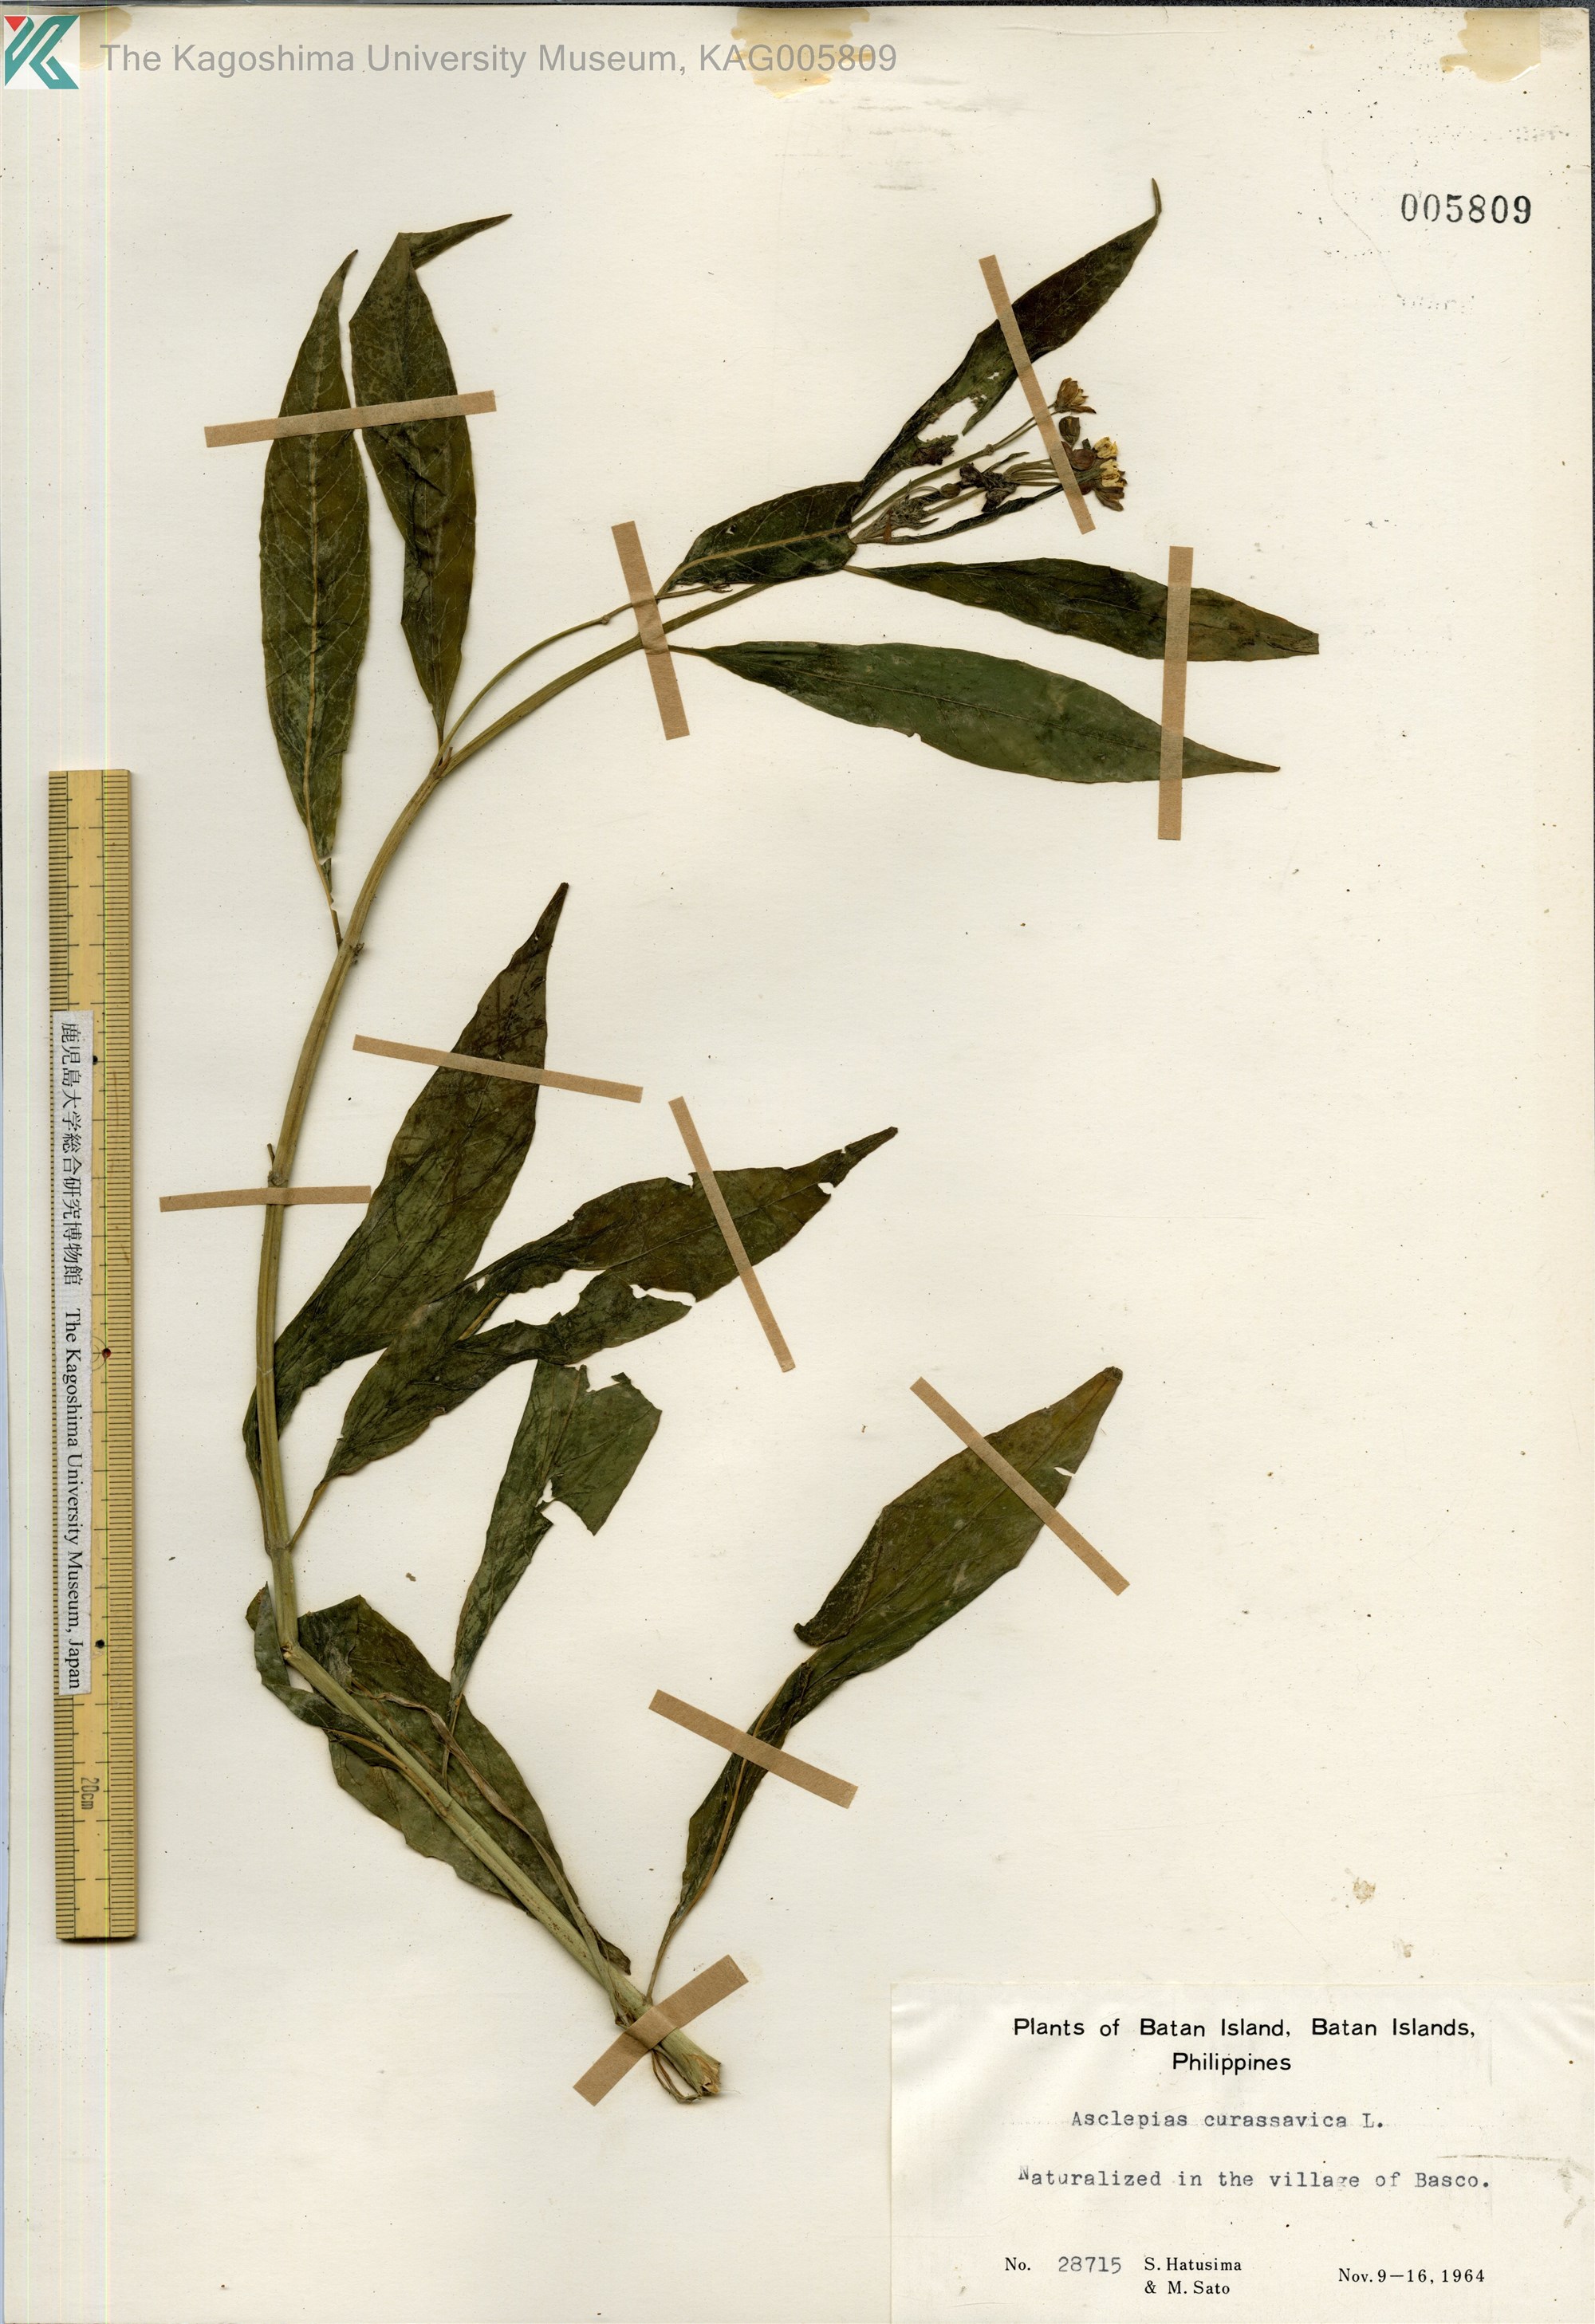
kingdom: Plantae
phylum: Tracheophyta
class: Magnoliopsida
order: Gentianales
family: Apocynaceae
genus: Asclepias
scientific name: Asclepias
